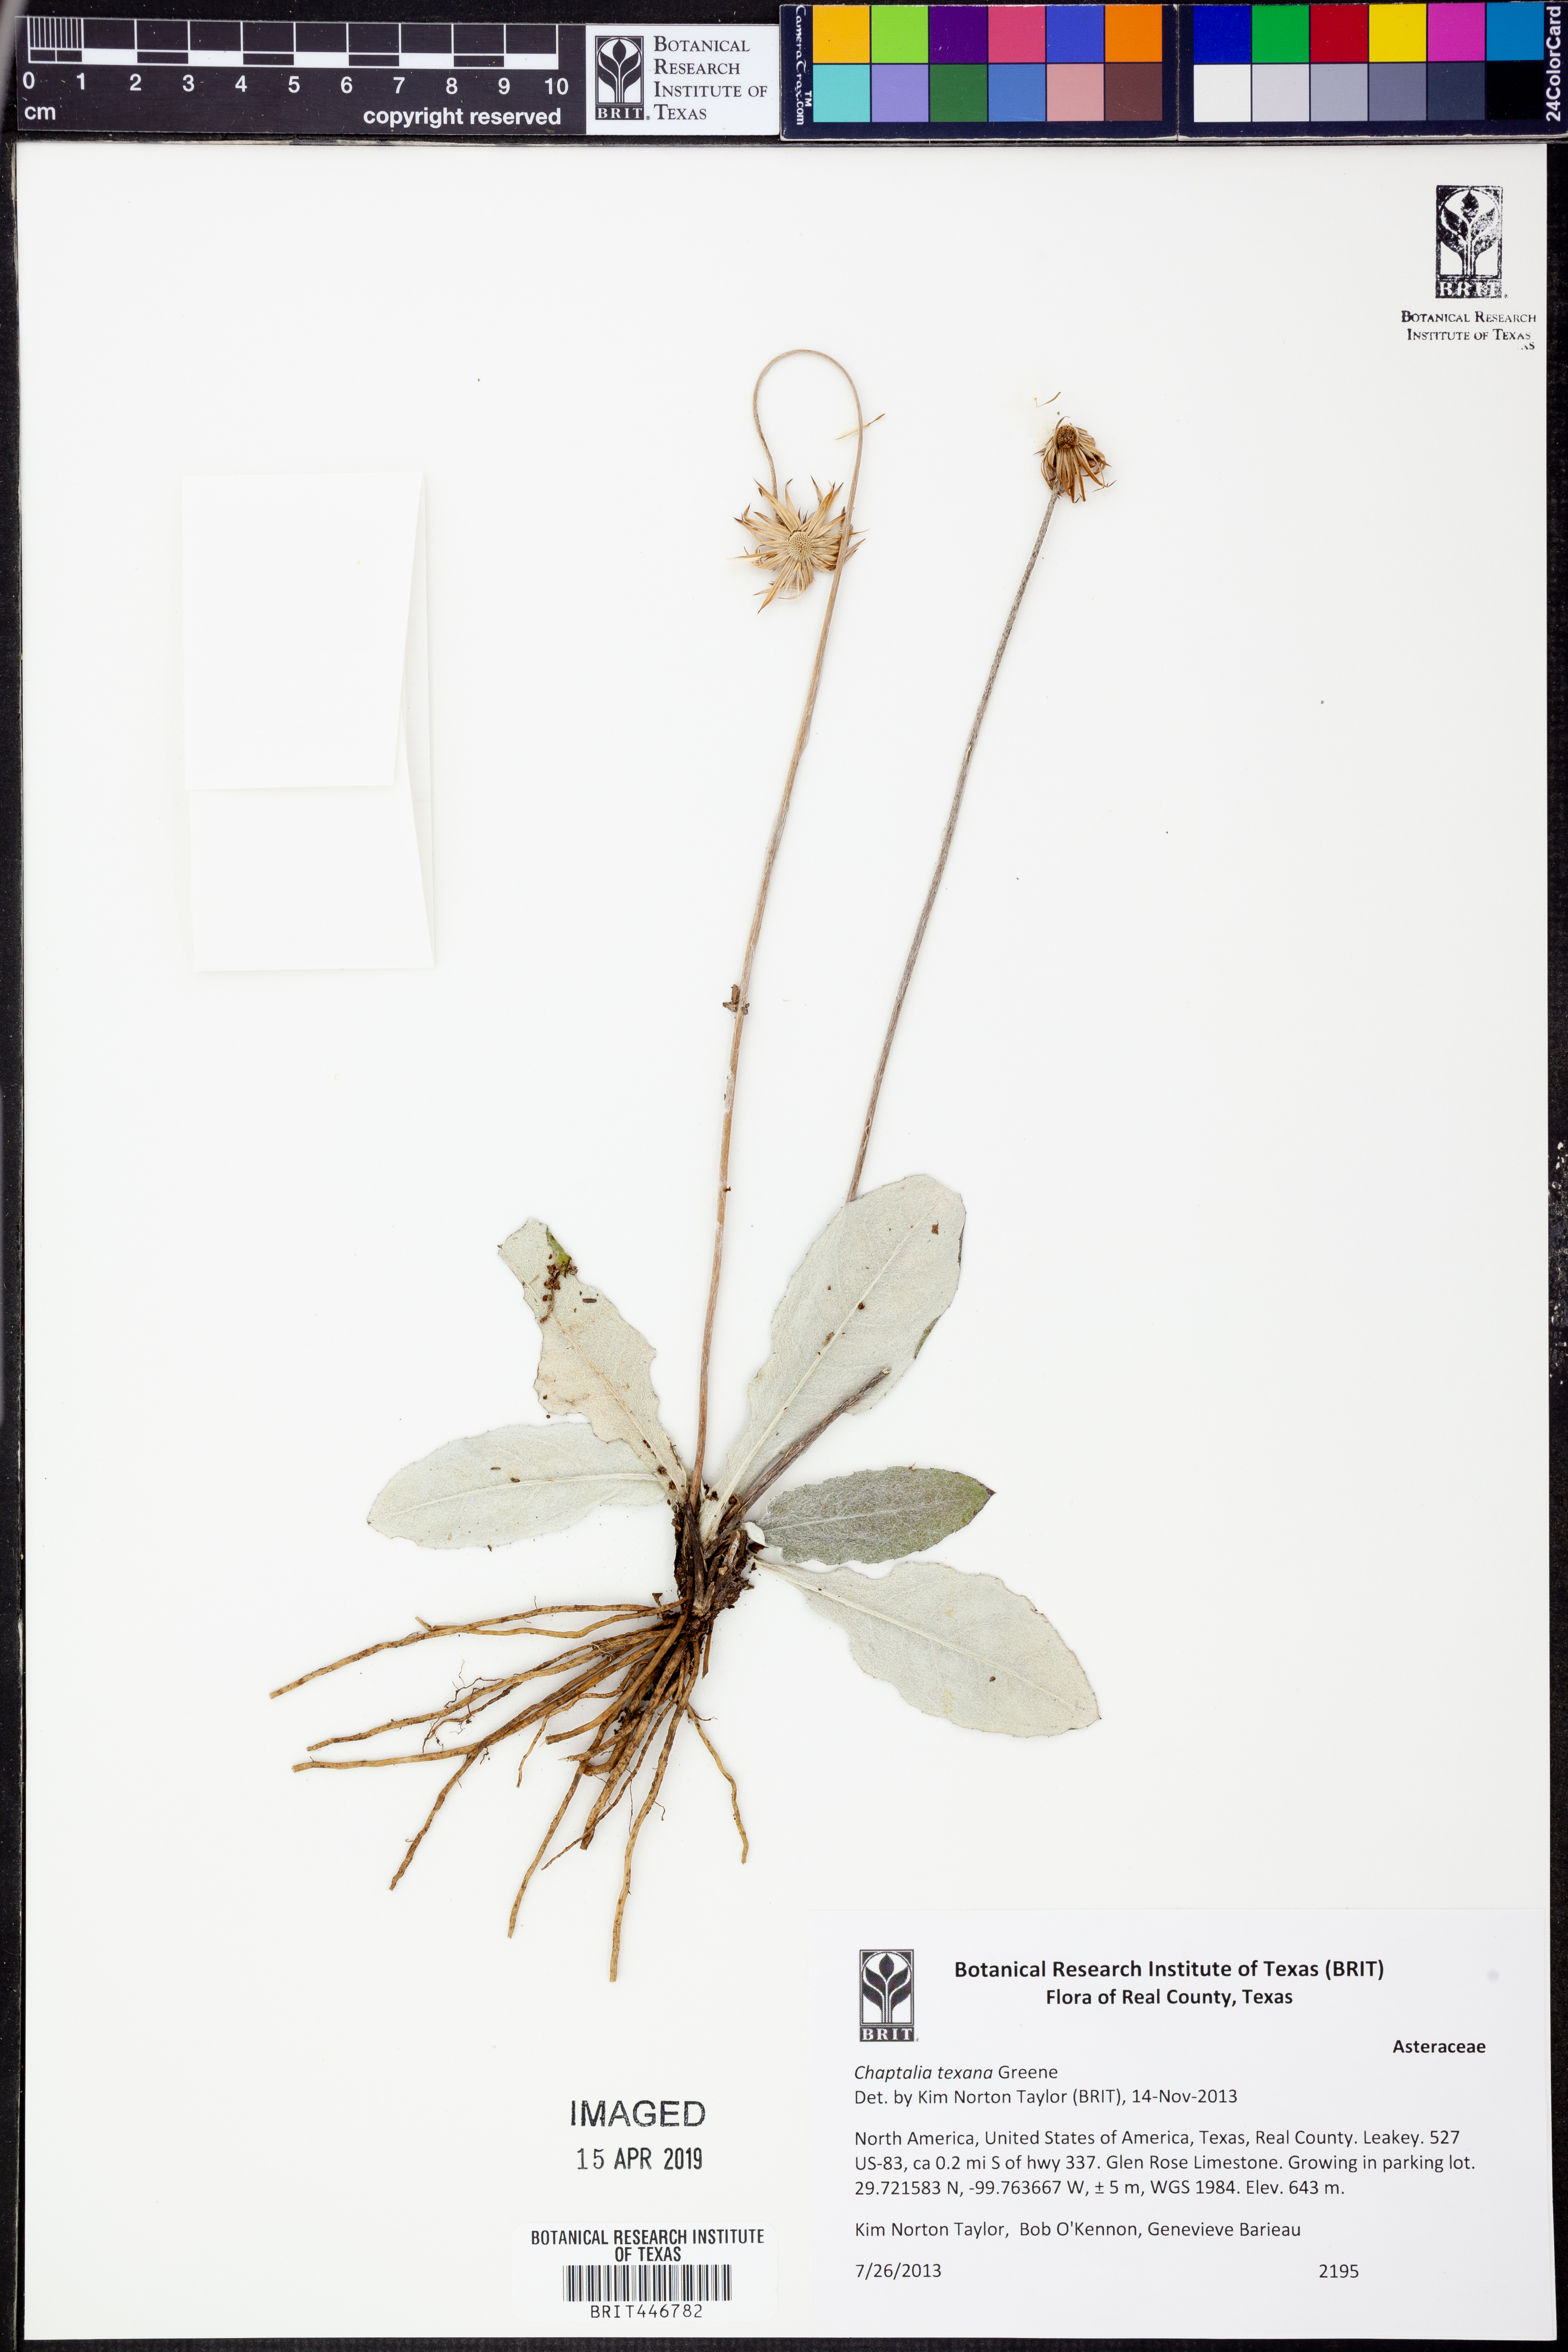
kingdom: Plantae
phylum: Tracheophyta
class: Magnoliopsida
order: Asterales
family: Asteraceae
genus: Chaptalia
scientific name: Chaptalia texana
